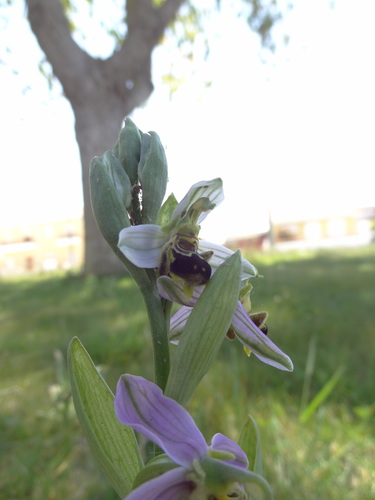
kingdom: Plantae
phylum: Tracheophyta
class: Liliopsida
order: Asparagales
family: Orchidaceae
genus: Ophrys
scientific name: Ophrys apifera
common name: Bee orchid
